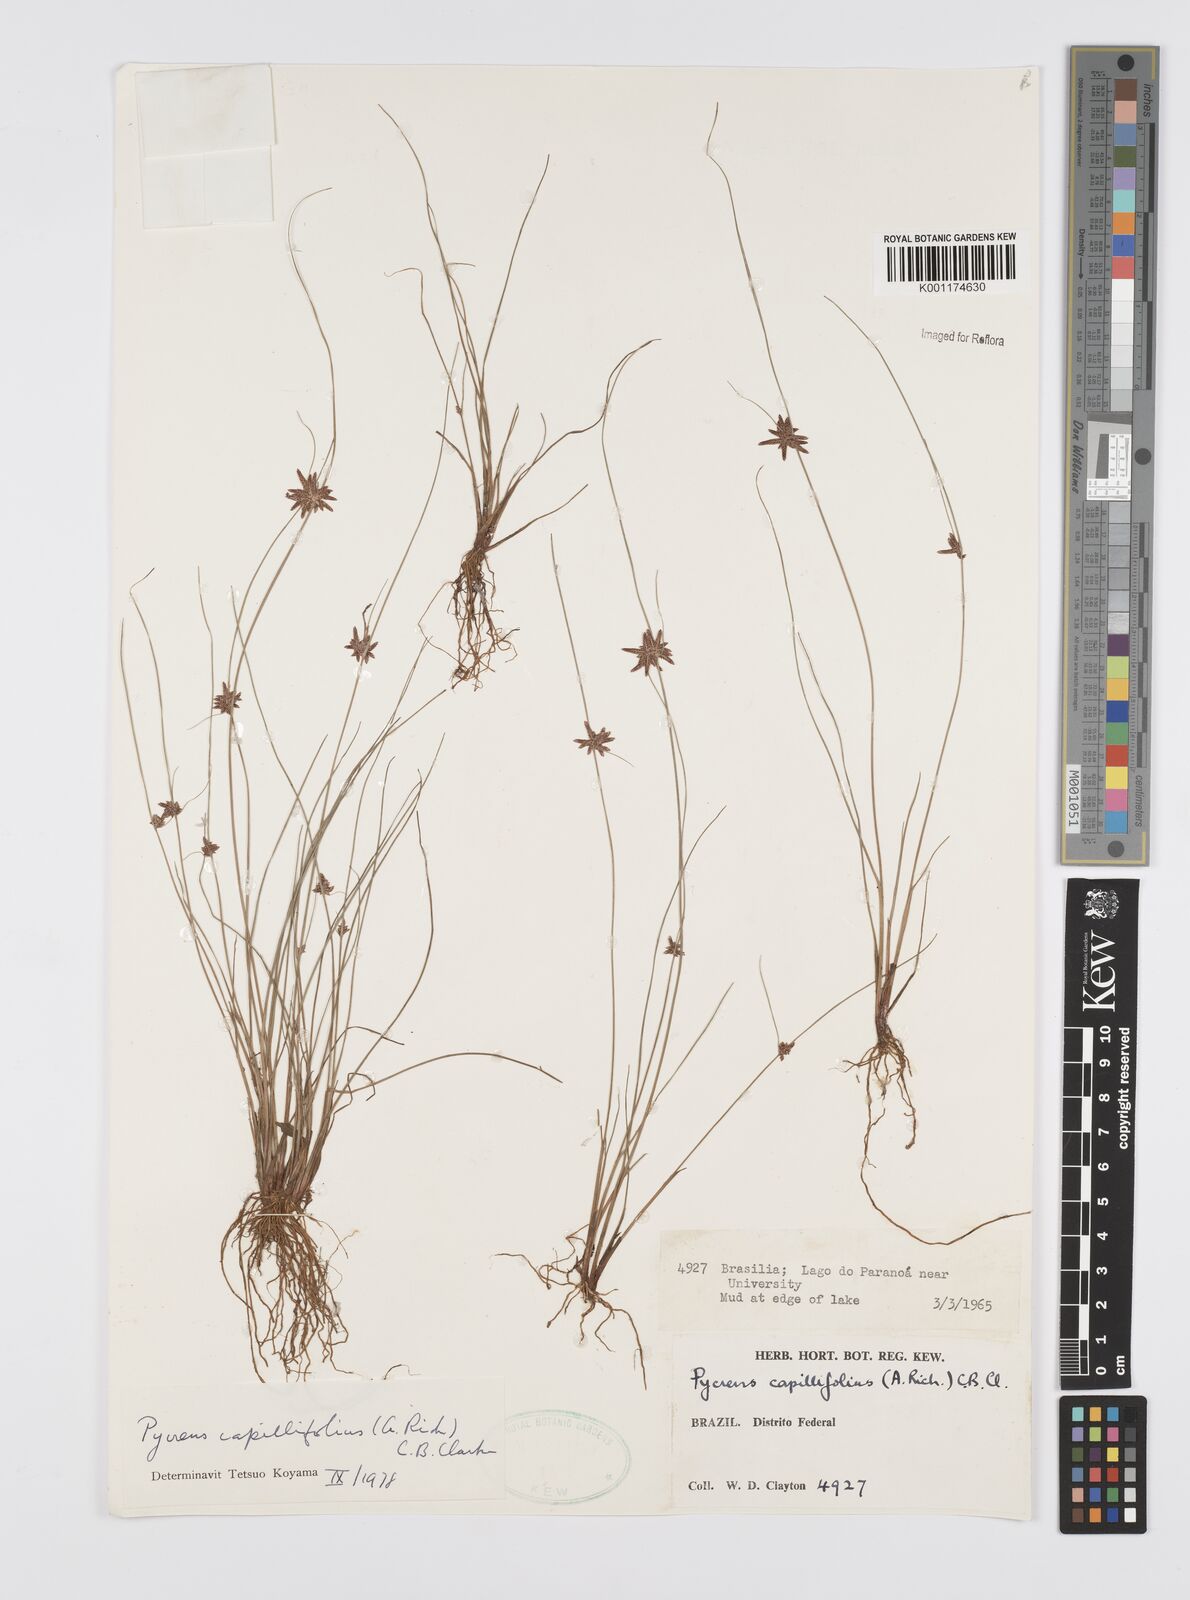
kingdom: Plantae
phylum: Tracheophyta
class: Liliopsida
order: Poales
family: Cyperaceae
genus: Cyperus
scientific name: Cyperus capillifolius
